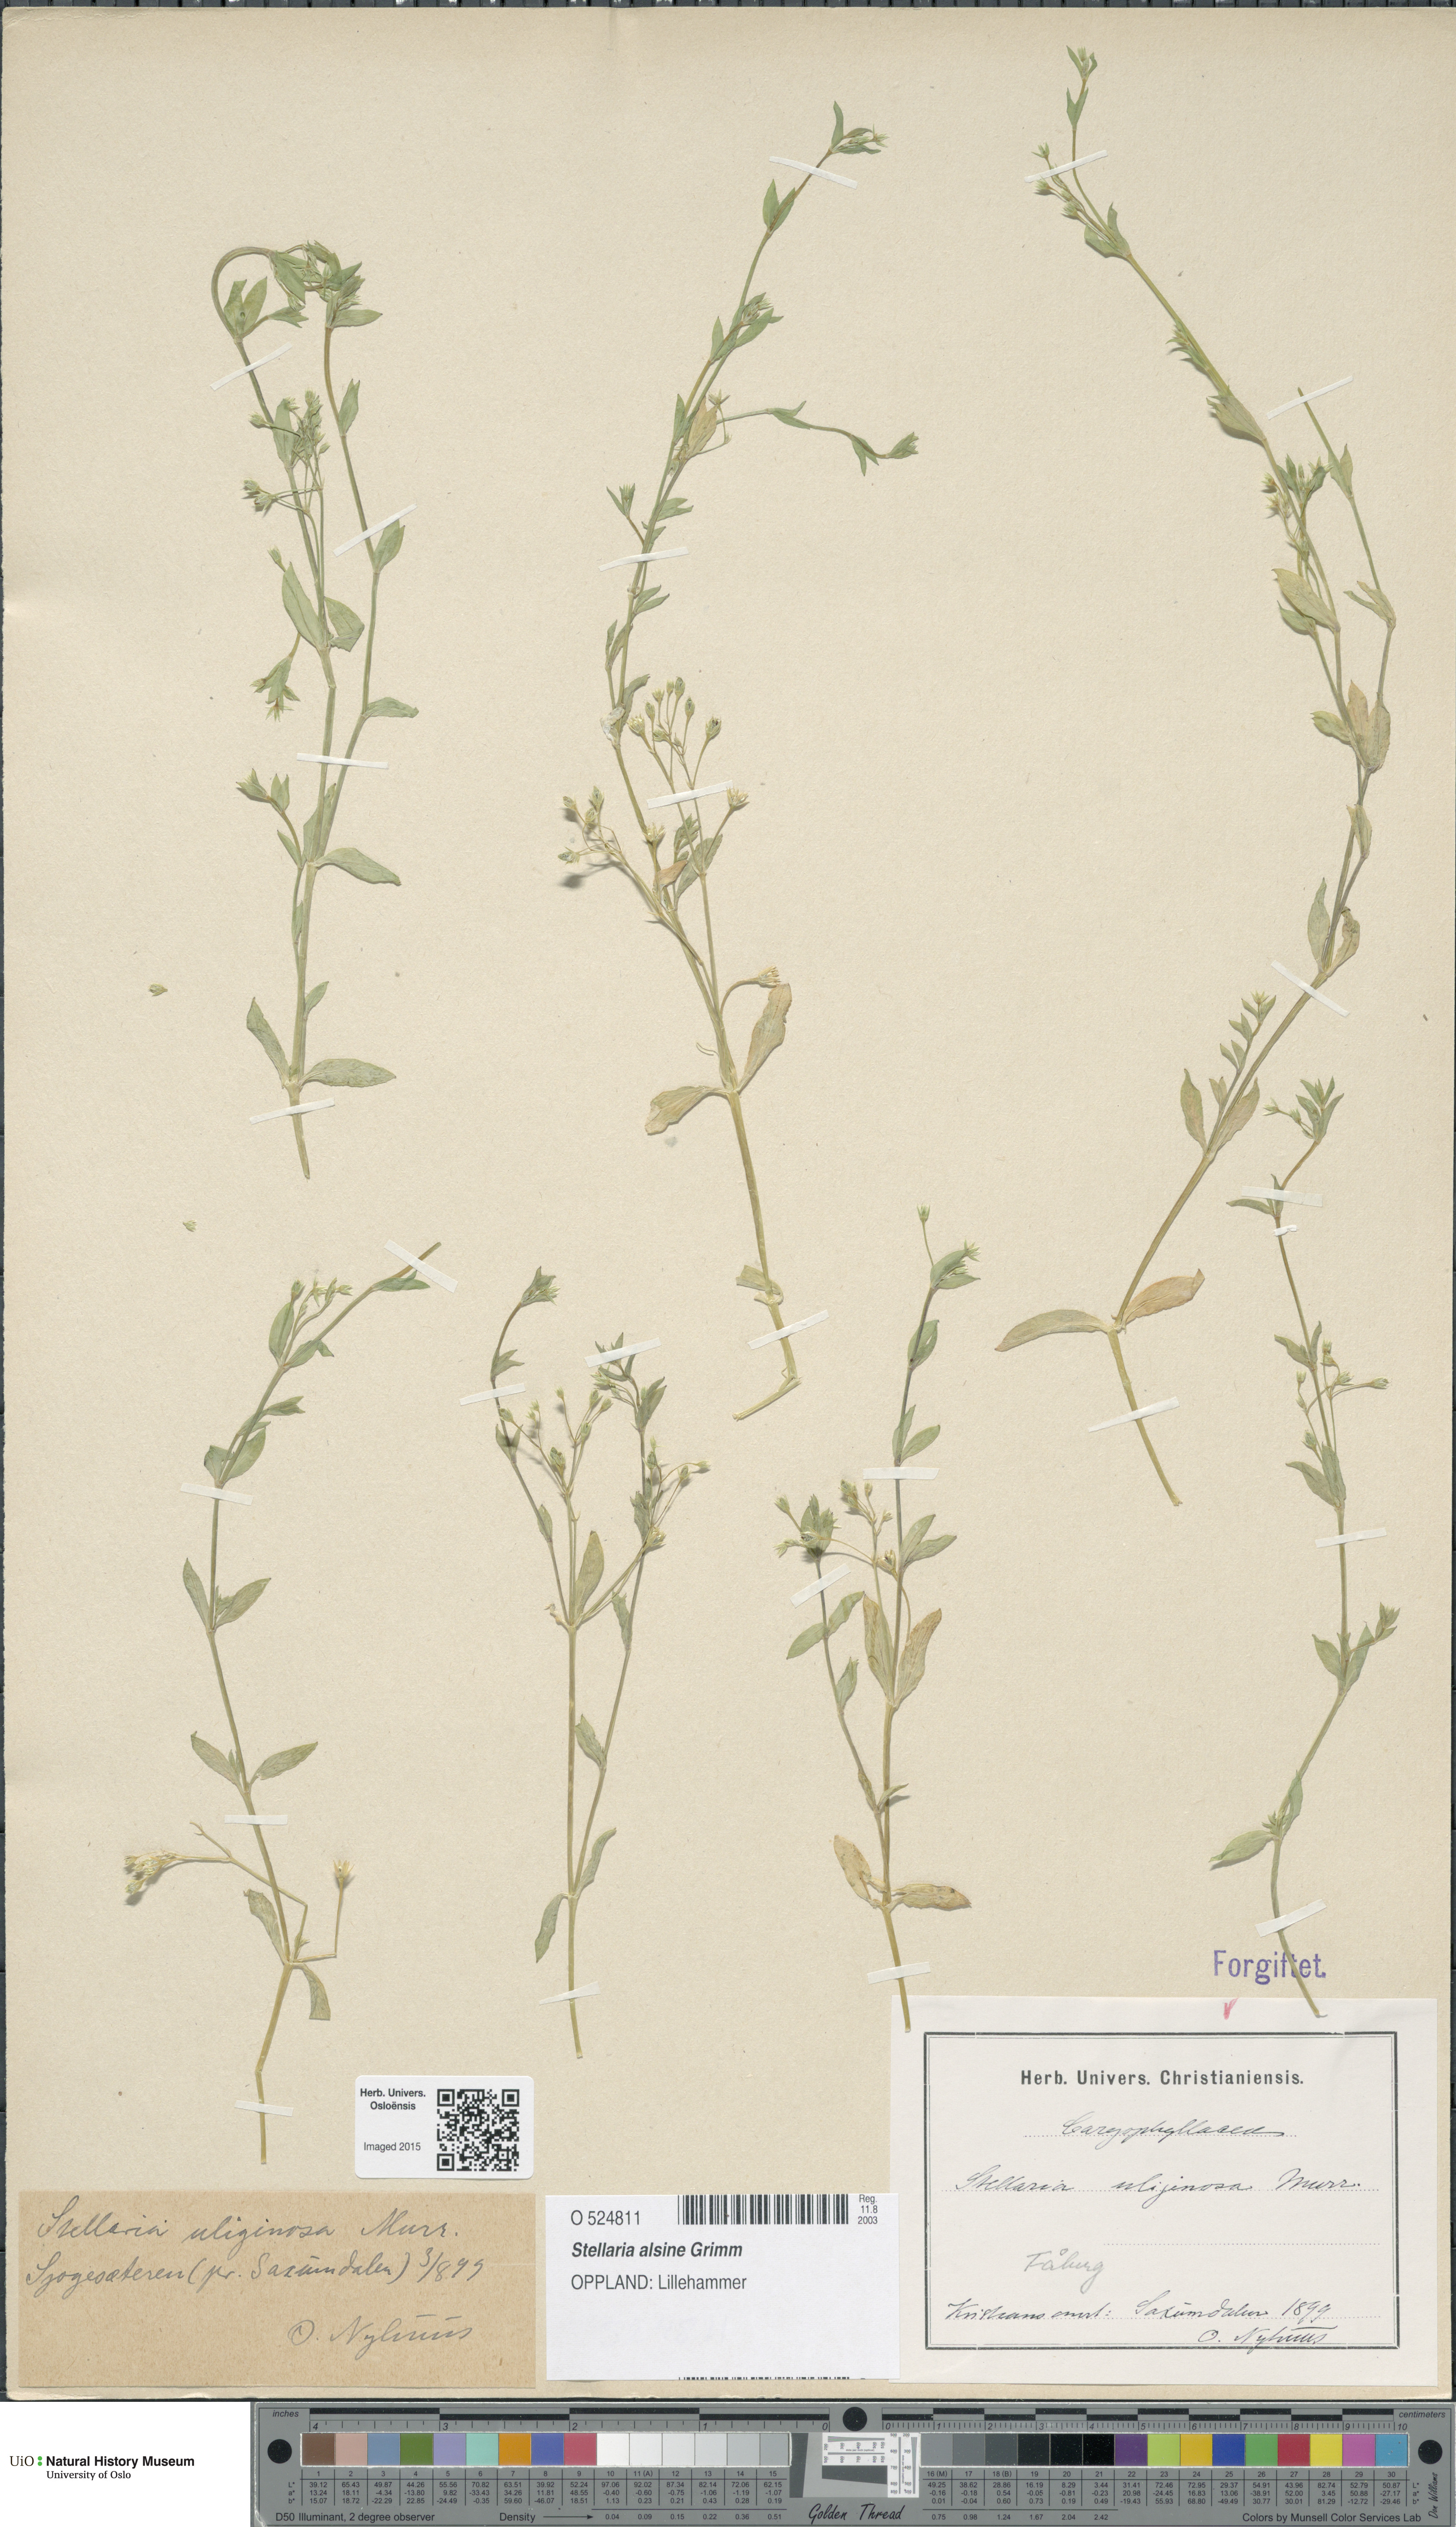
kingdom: Plantae
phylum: Tracheophyta
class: Magnoliopsida
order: Caryophyllales
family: Caryophyllaceae
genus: Stellaria
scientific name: Stellaria alsine
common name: Bog stitchwort
